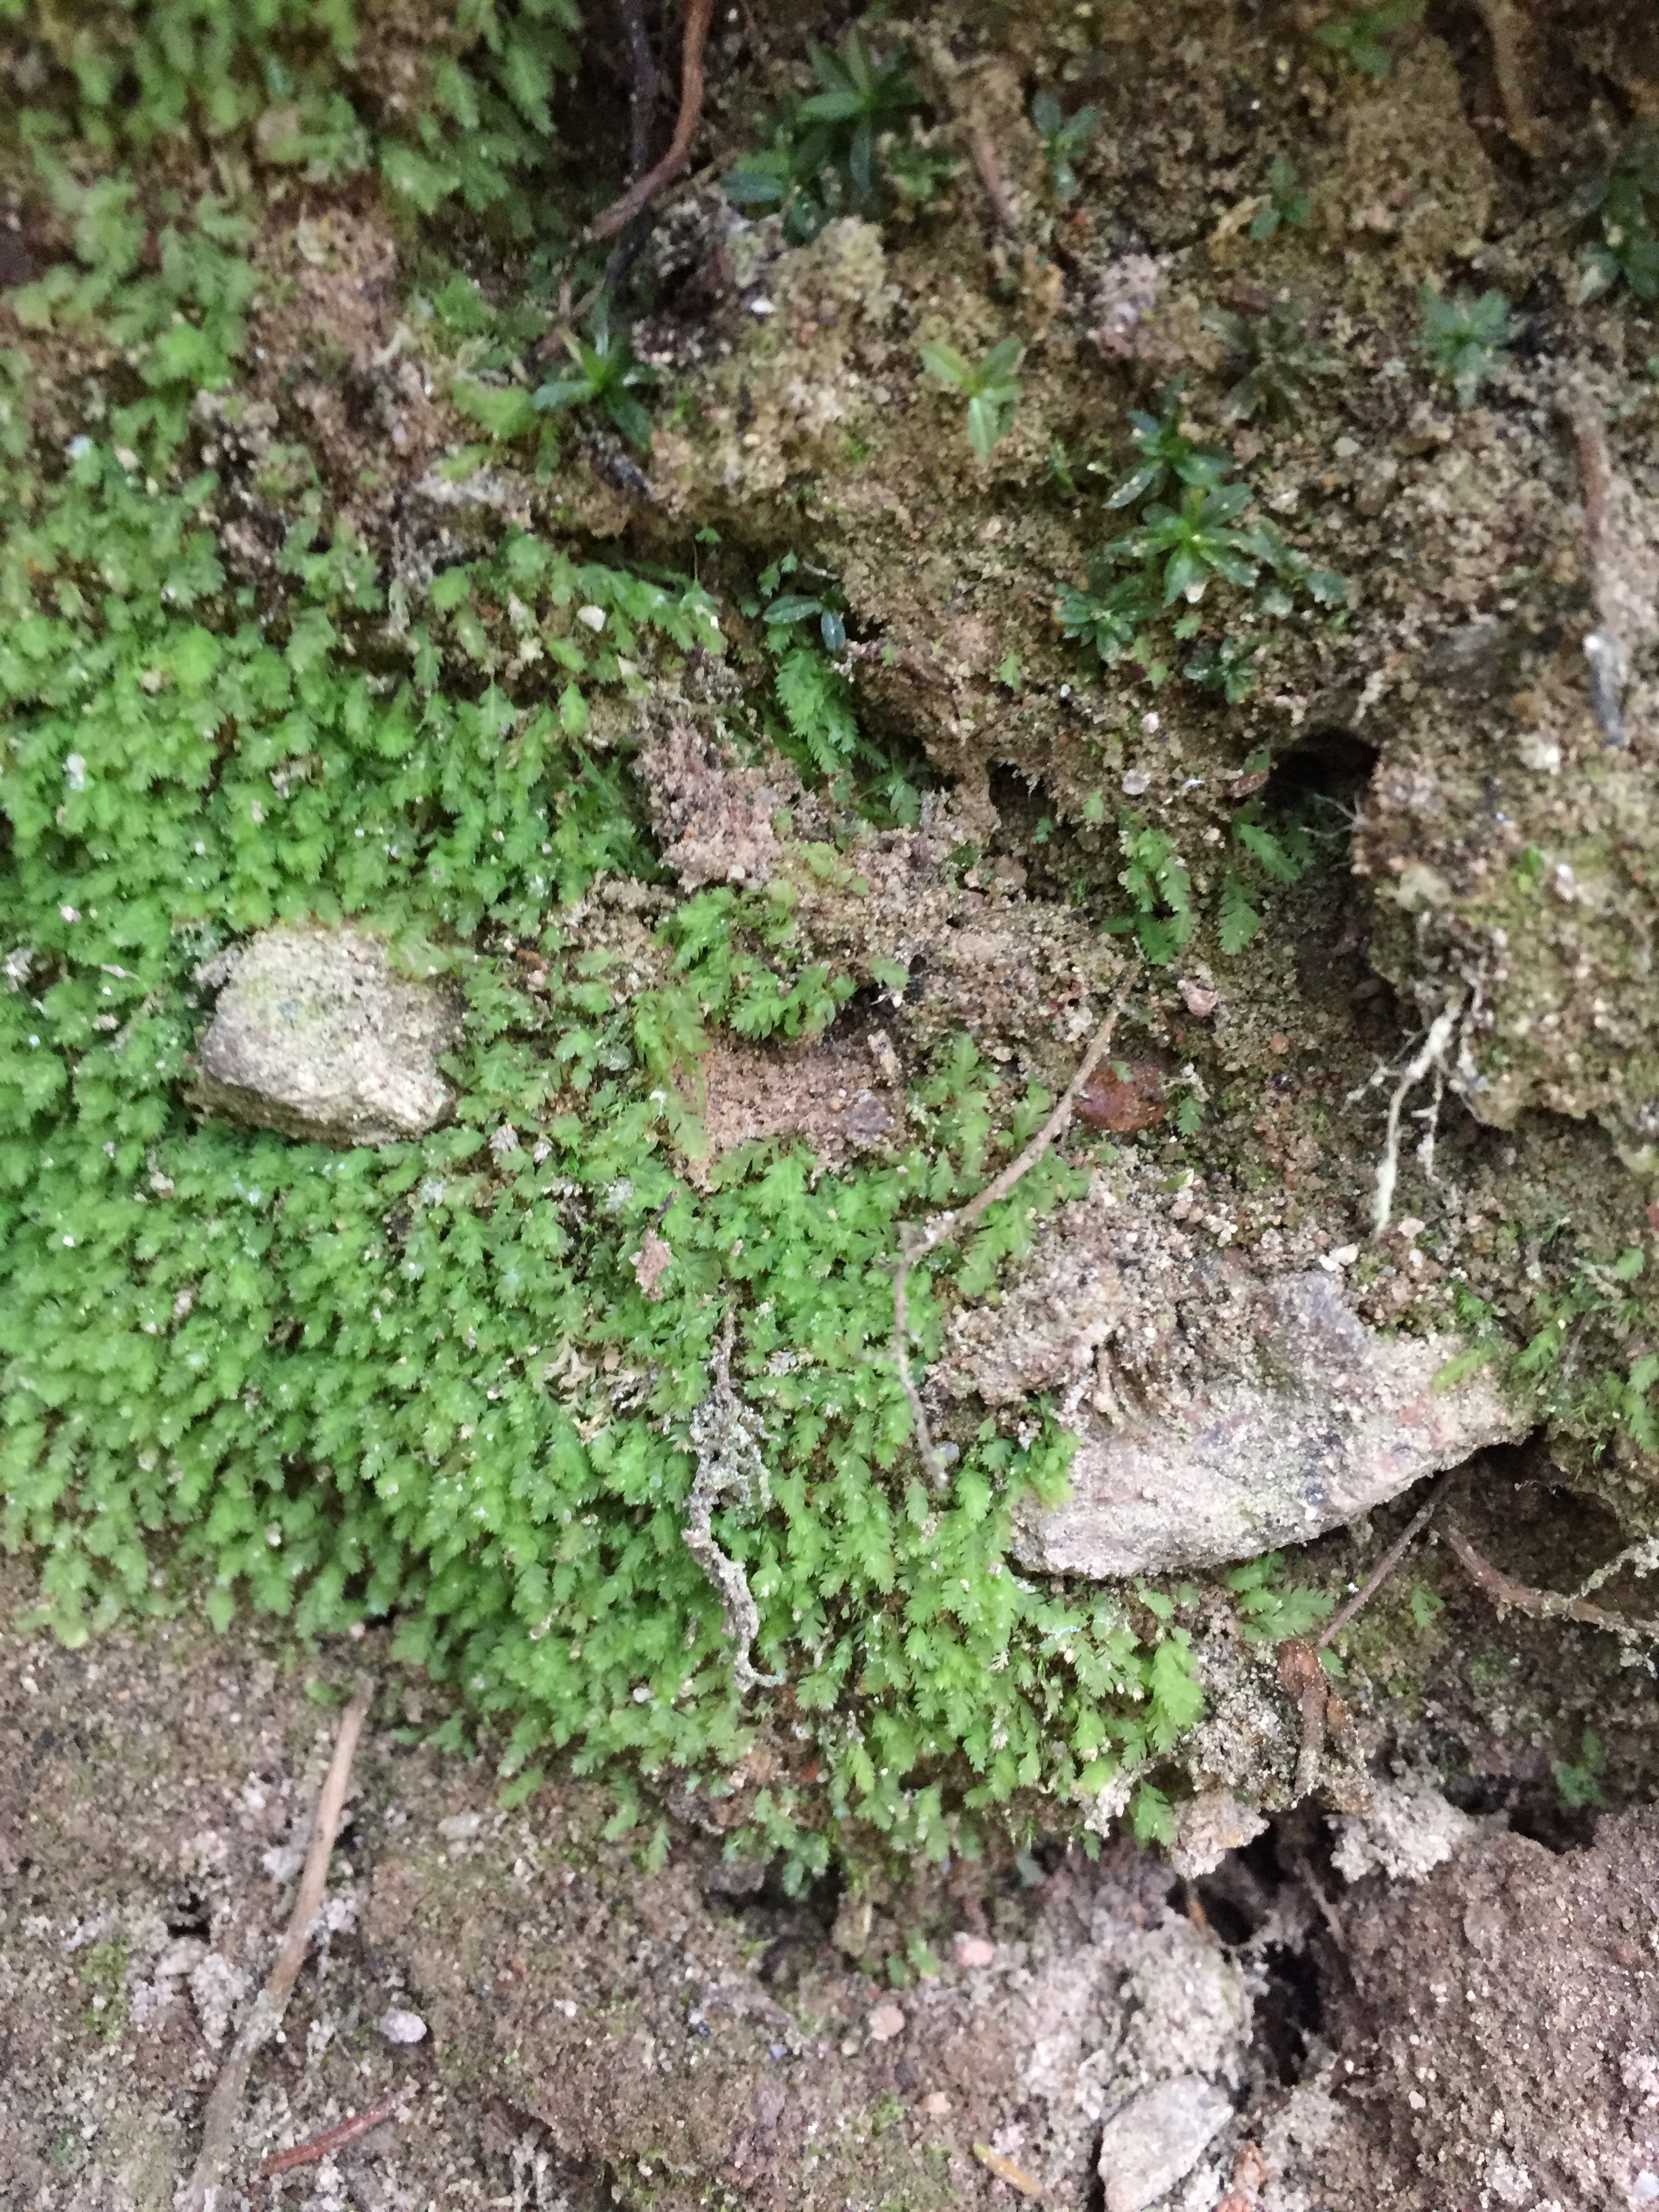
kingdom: Plantae
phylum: Bryophyta
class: Bryopsida
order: Dicranales
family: Schistostegaceae
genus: Schistostega
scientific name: Schistostega pennata
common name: Luminous moss
